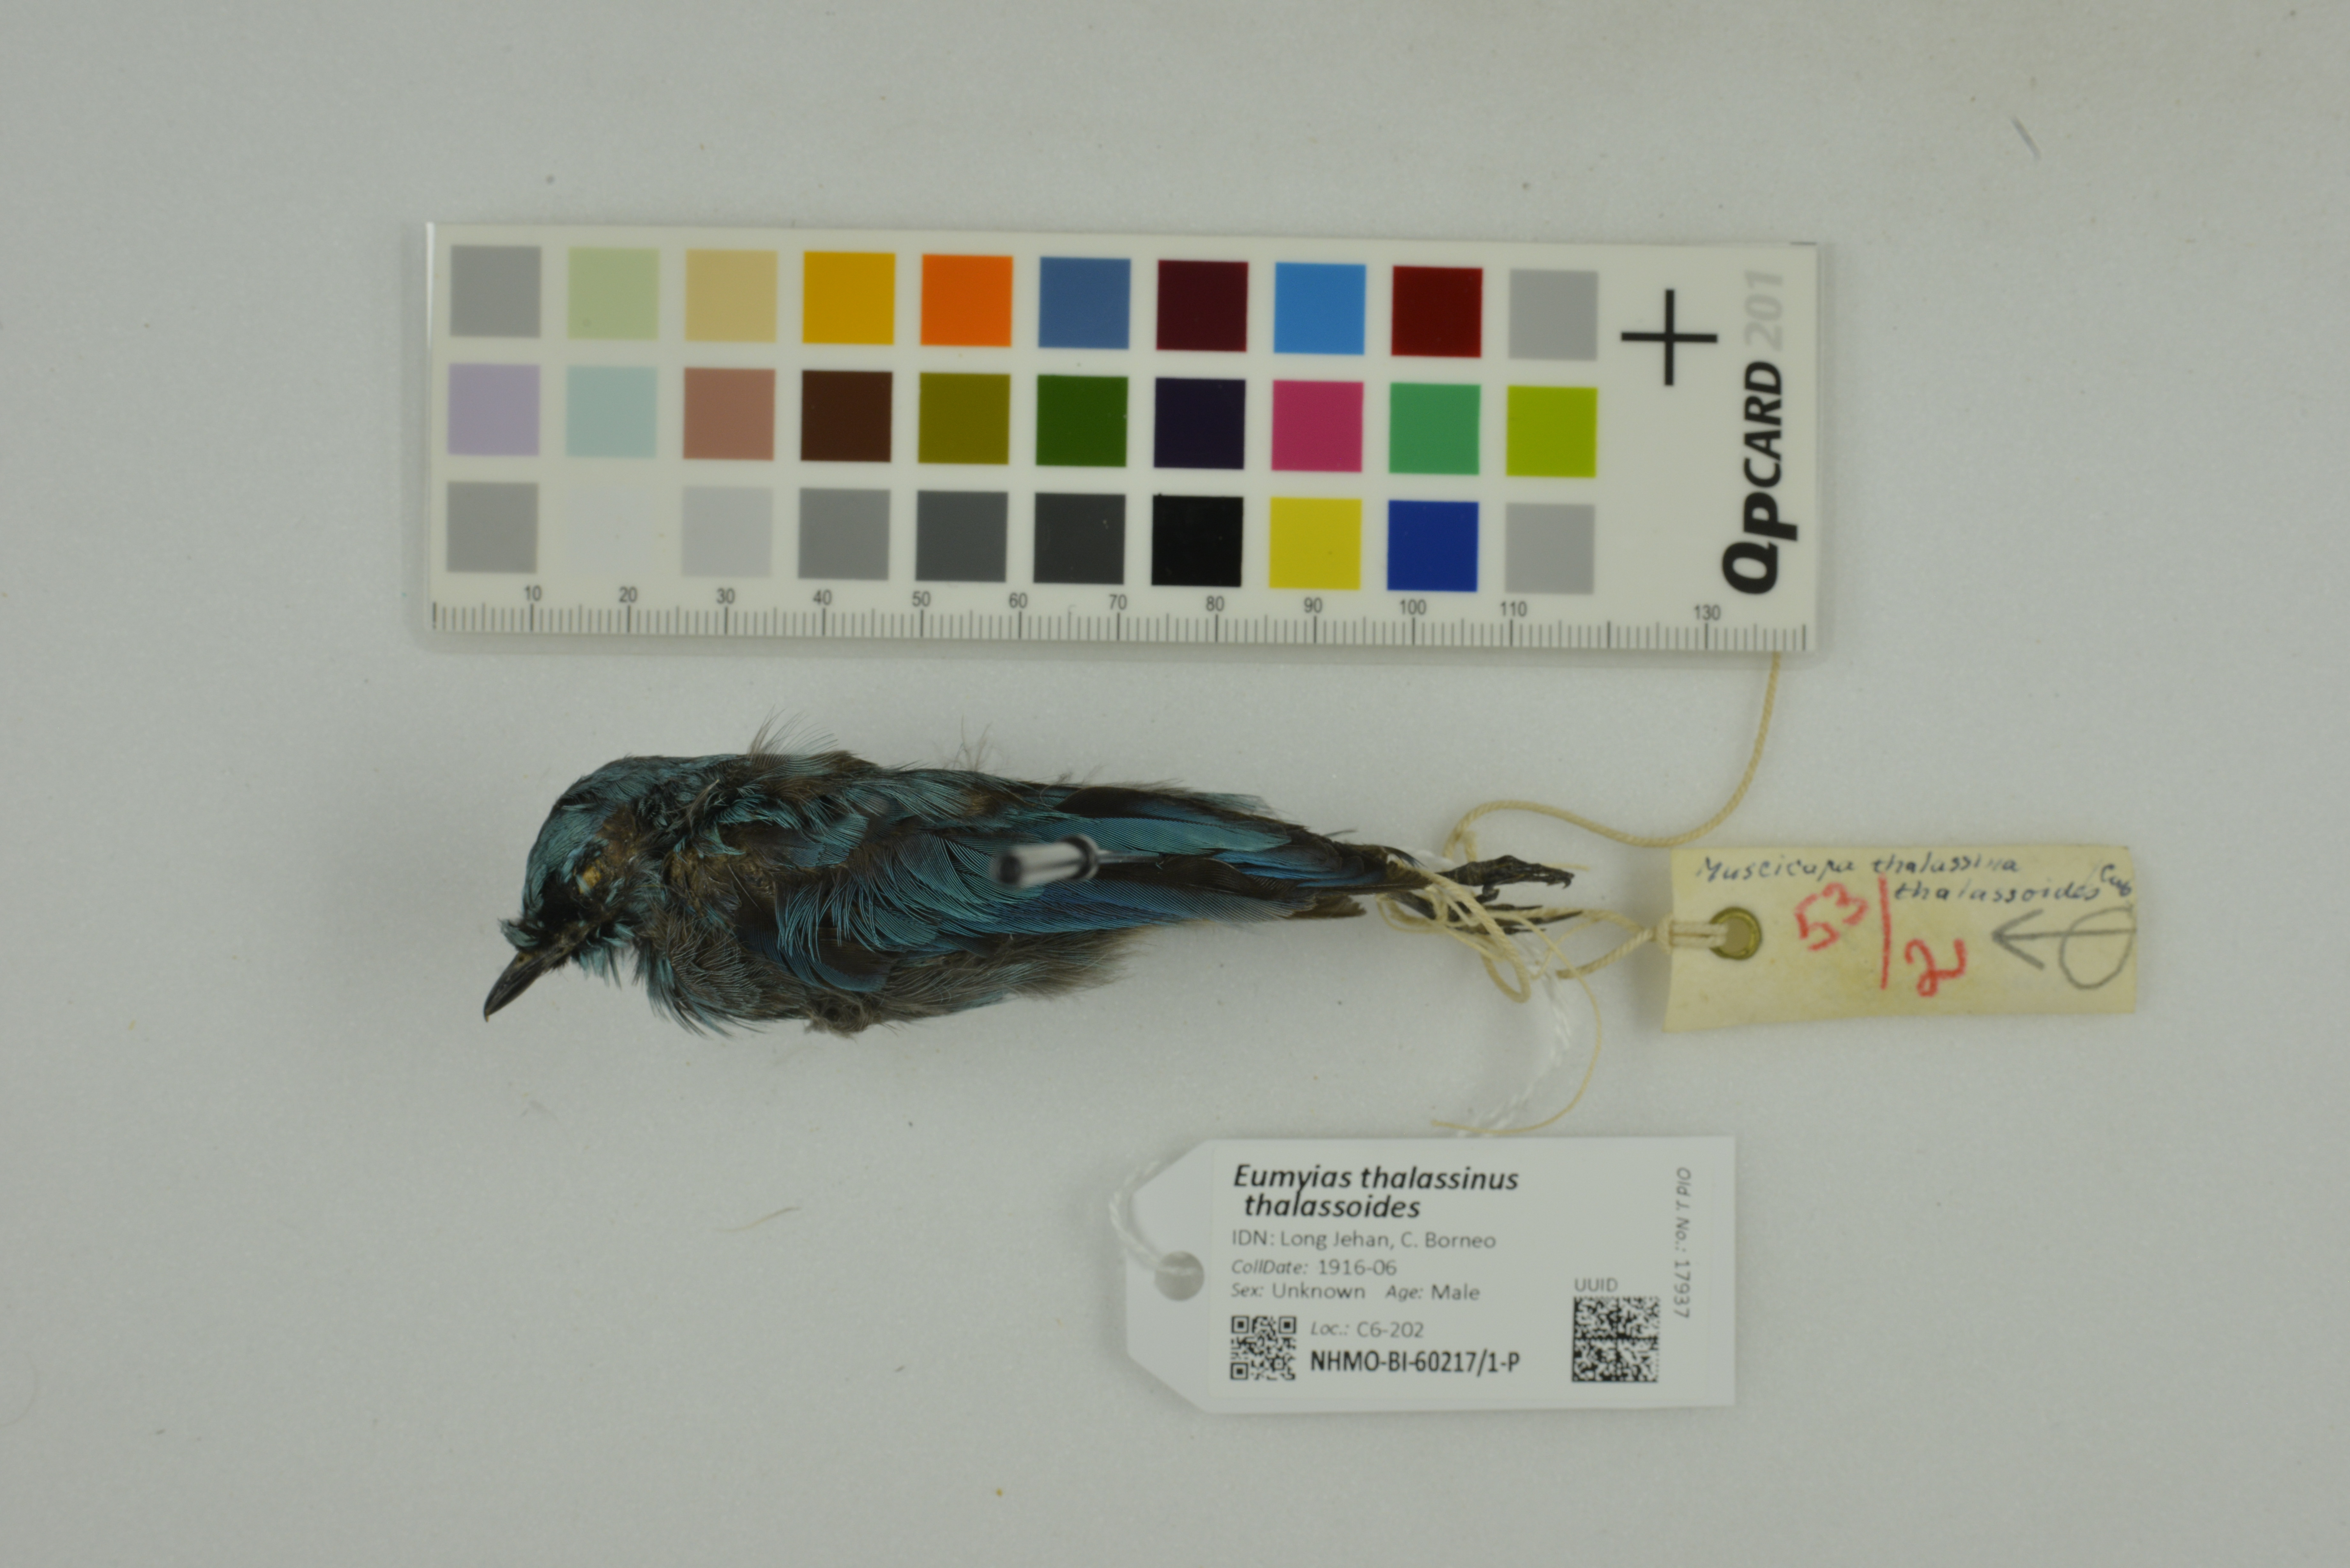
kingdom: Animalia
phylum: Chordata
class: Aves
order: Passeriformes
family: Muscicapidae
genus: Eumyias
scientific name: Eumyias thalassinus
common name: Verditer flycatcher
